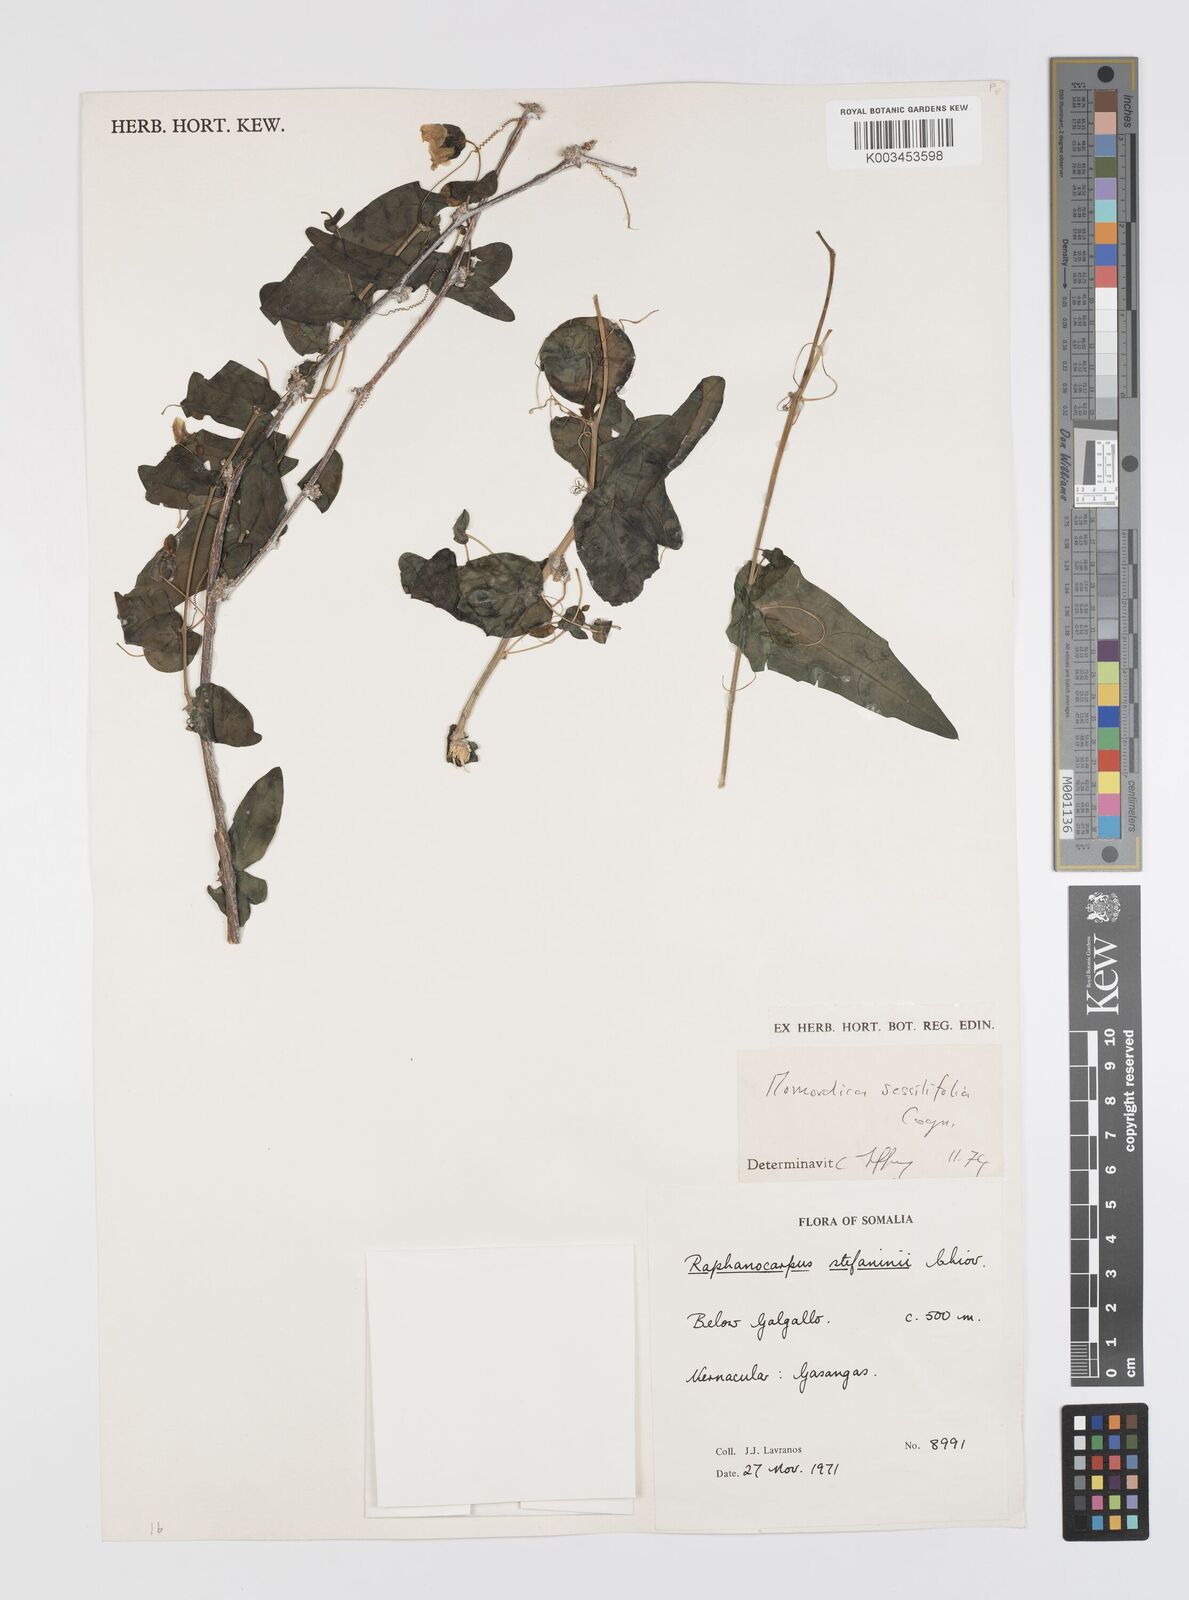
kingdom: Plantae
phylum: Tracheophyta
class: Magnoliopsida
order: Cucurbitales
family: Cucurbitaceae
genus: Momordica
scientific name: Momordica sessilifolia
